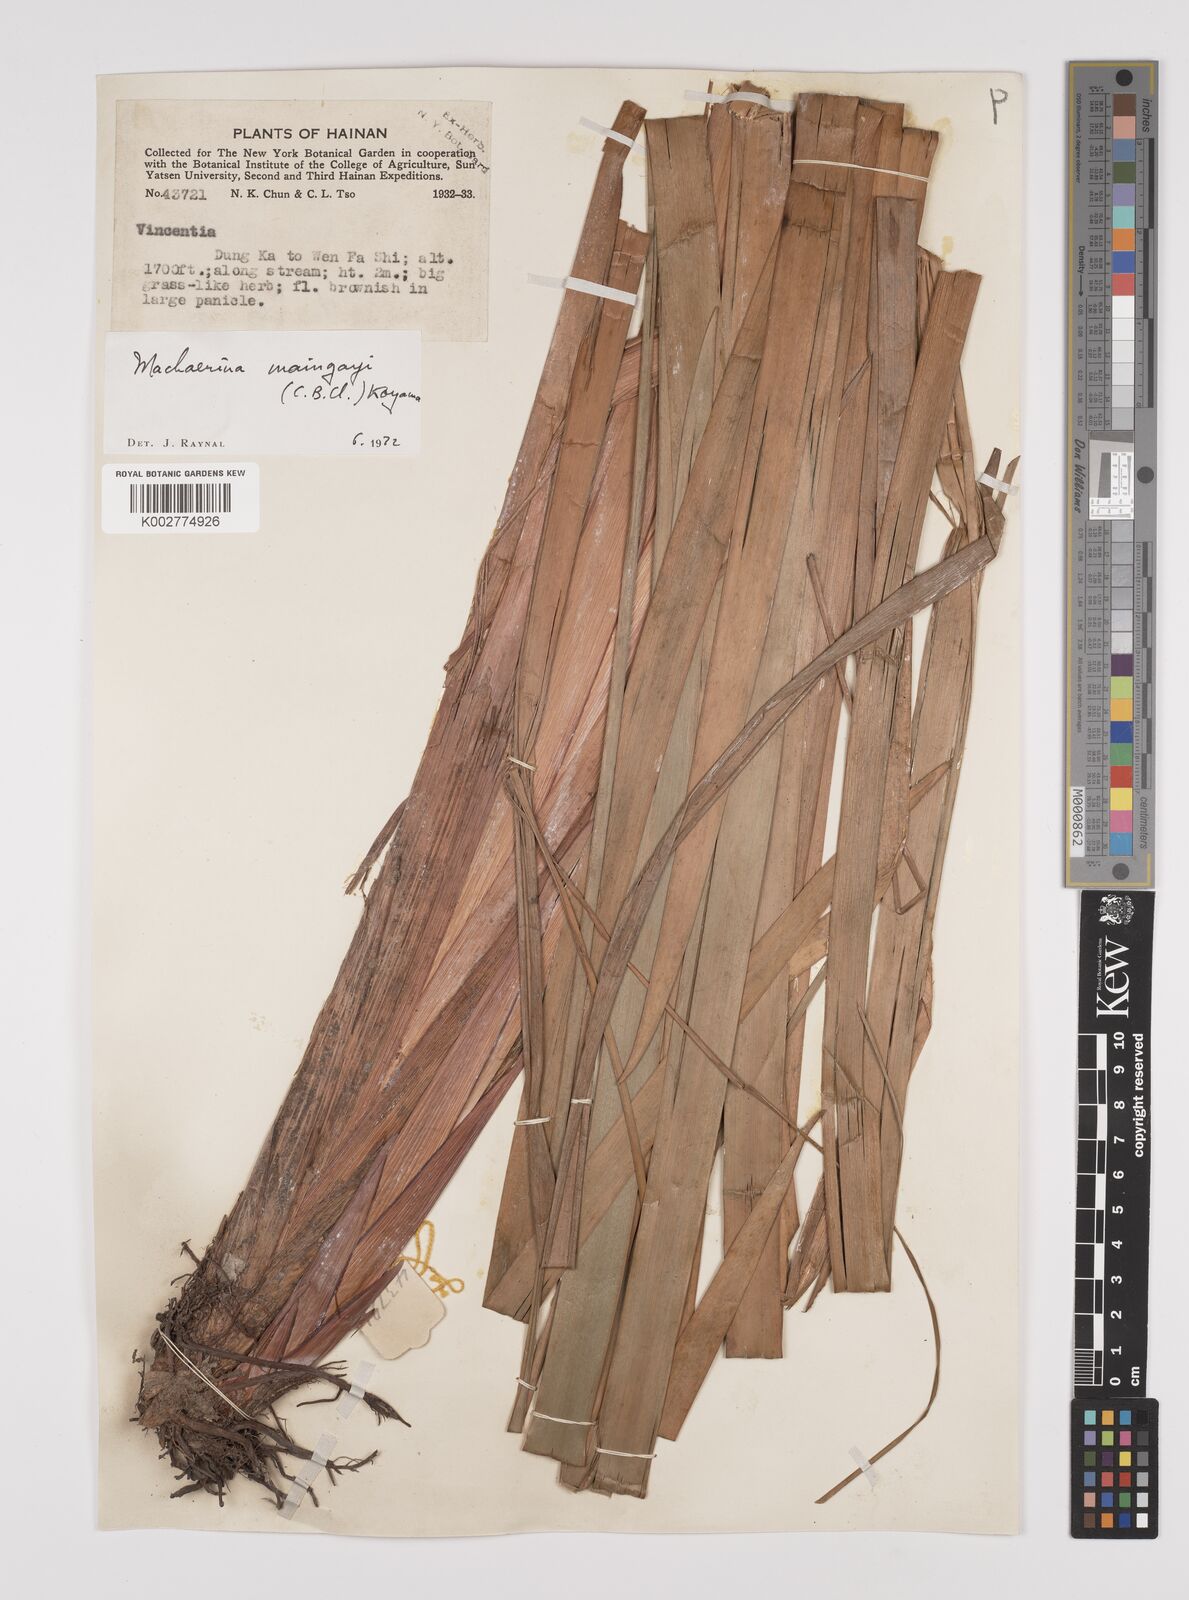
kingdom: Plantae
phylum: Tracheophyta
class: Liliopsida
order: Poales
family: Cyperaceae
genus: Machaerina
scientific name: Machaerina maingayi
